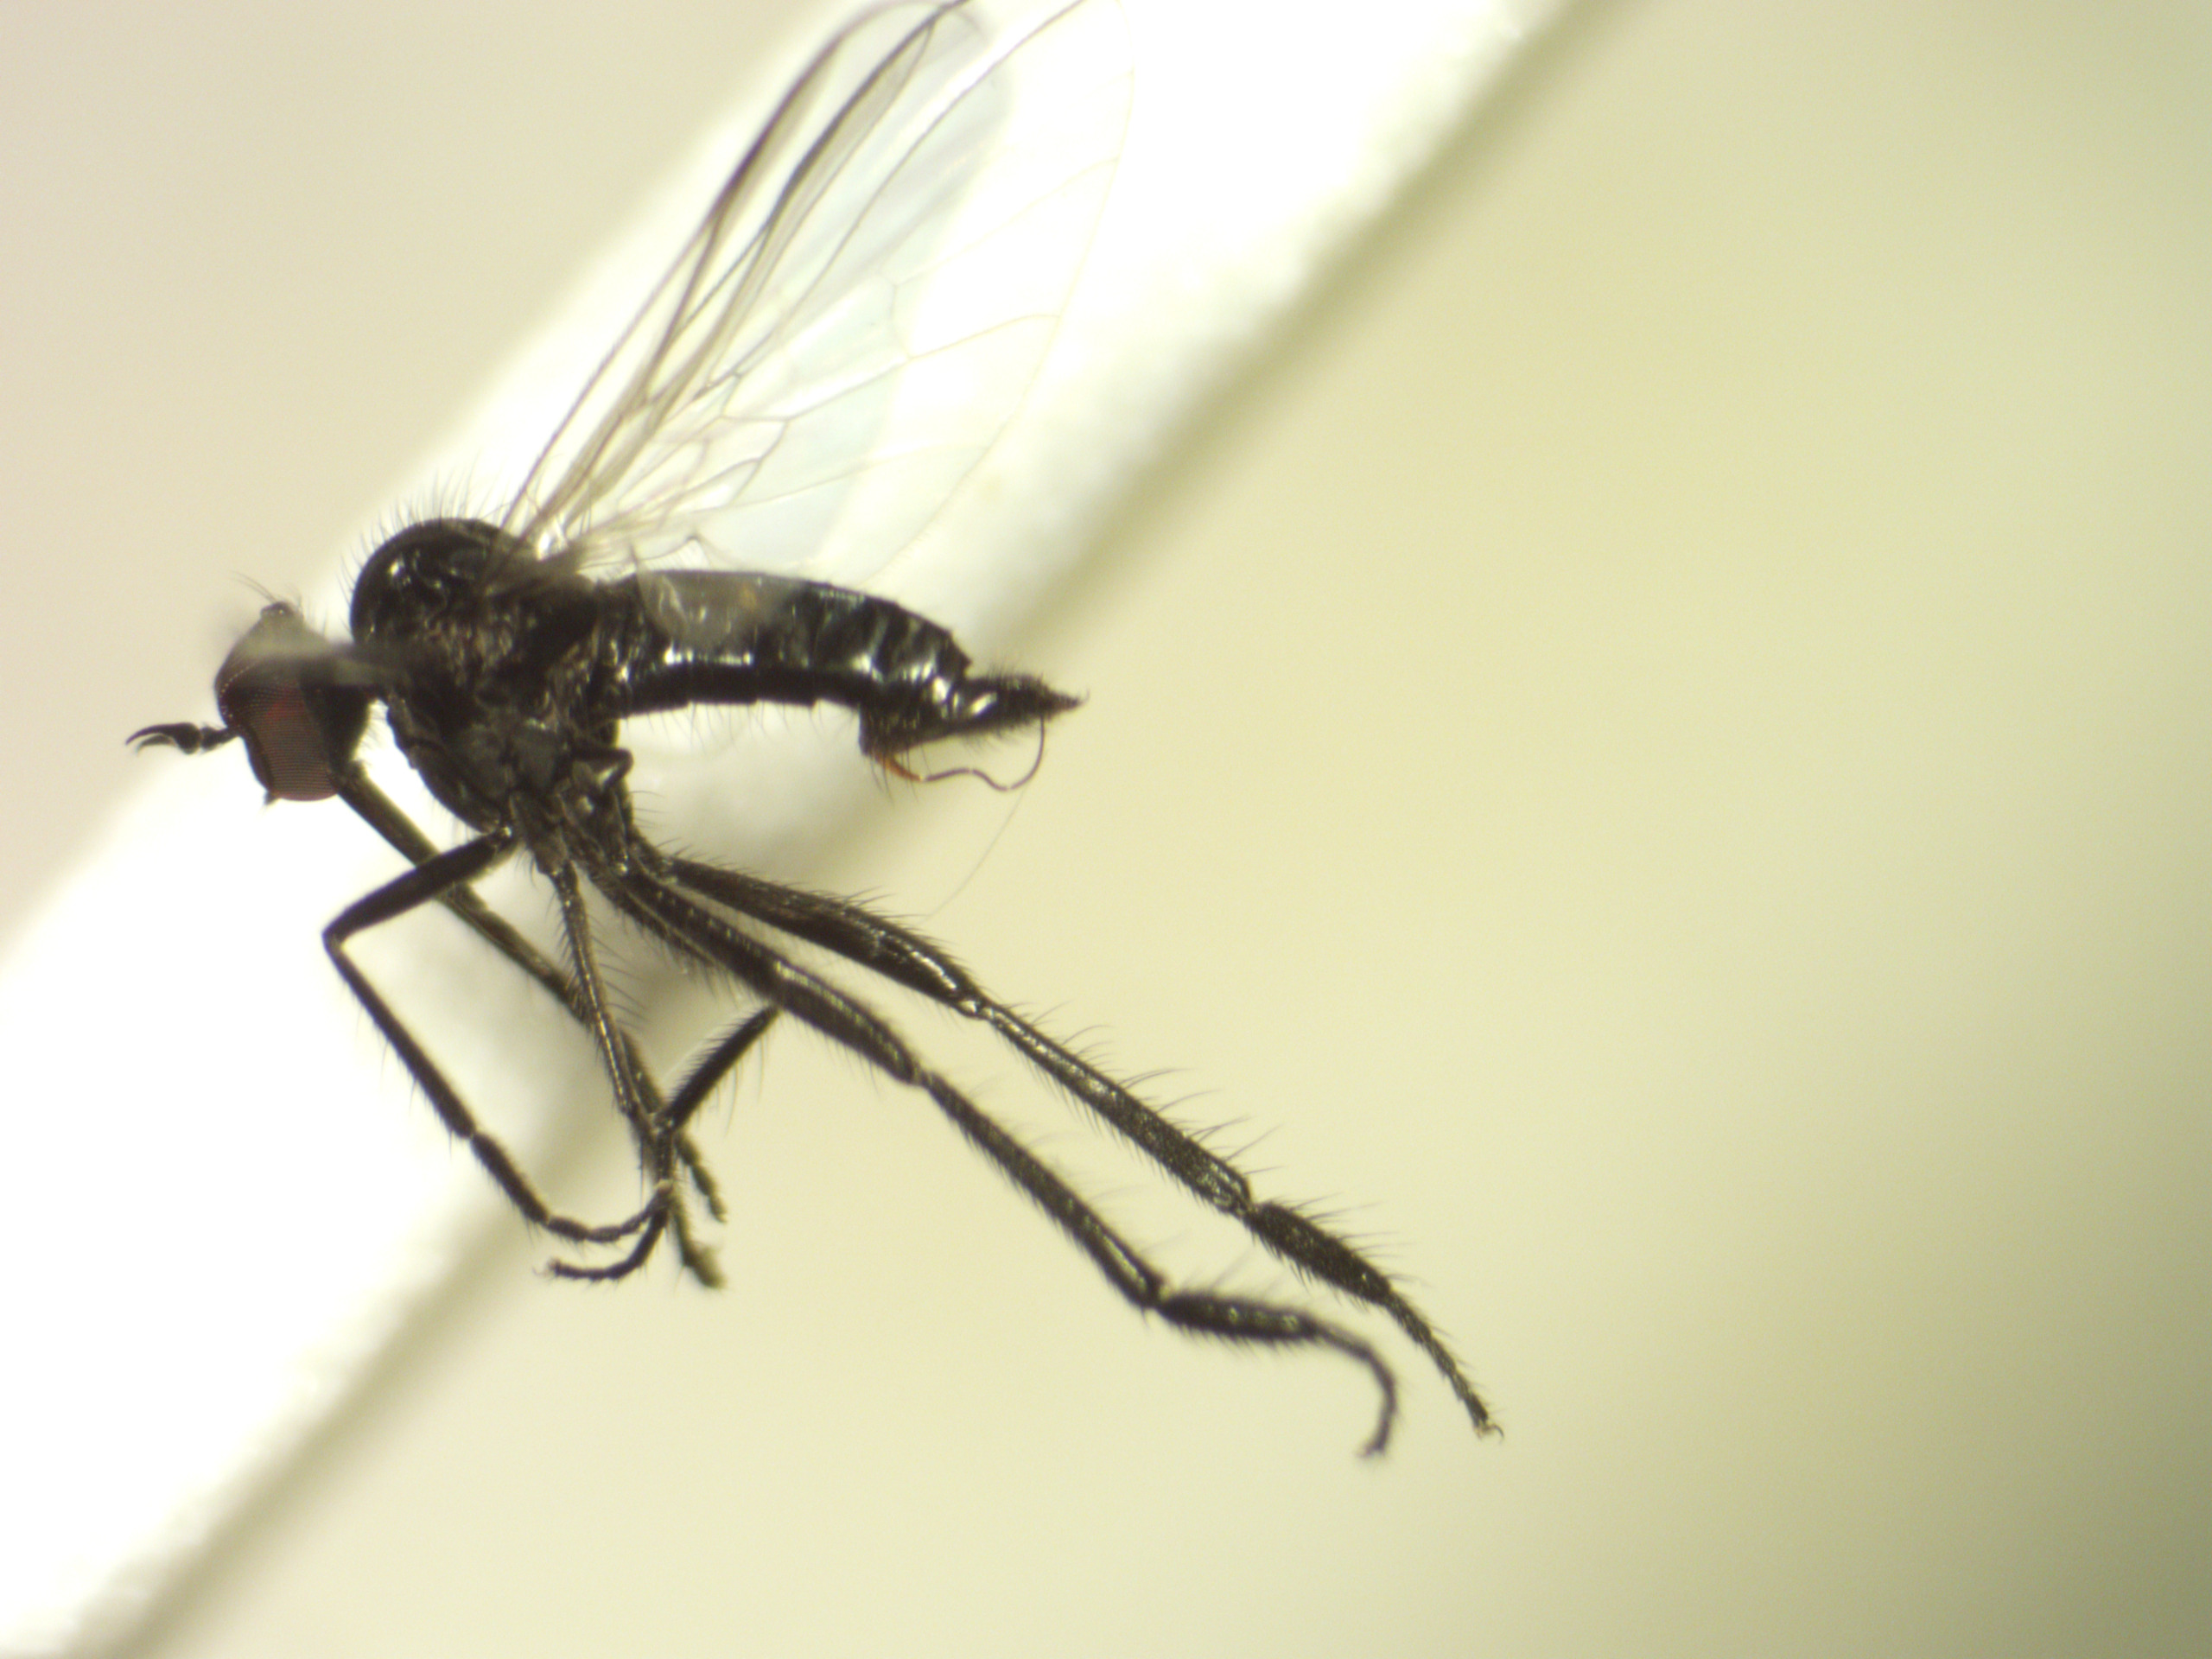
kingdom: Animalia
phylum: Arthropoda
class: Insecta
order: Diptera
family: Empididae
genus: Rhamphomyia
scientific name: Rhamphomyia longipes
